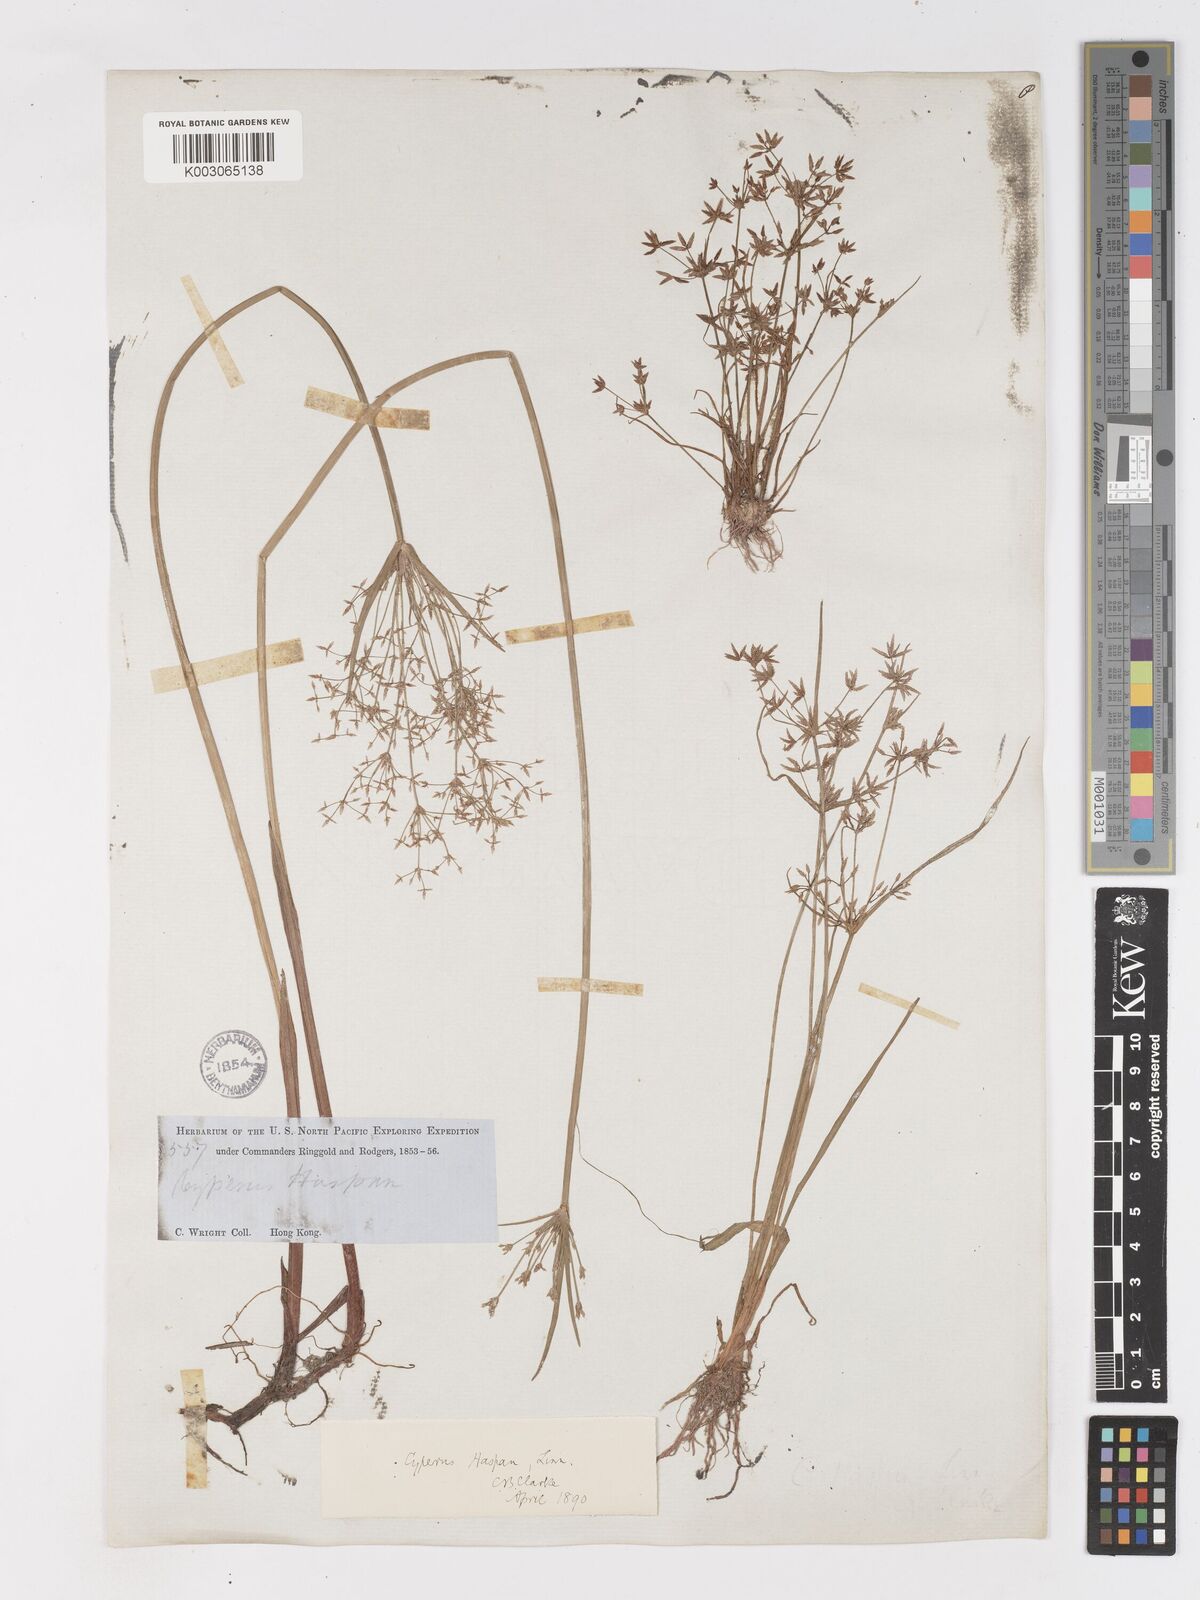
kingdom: Plantae
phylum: Tracheophyta
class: Liliopsida
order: Poales
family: Cyperaceae
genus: Cyperus
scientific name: Cyperus haspan
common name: Haspan flatsedge
